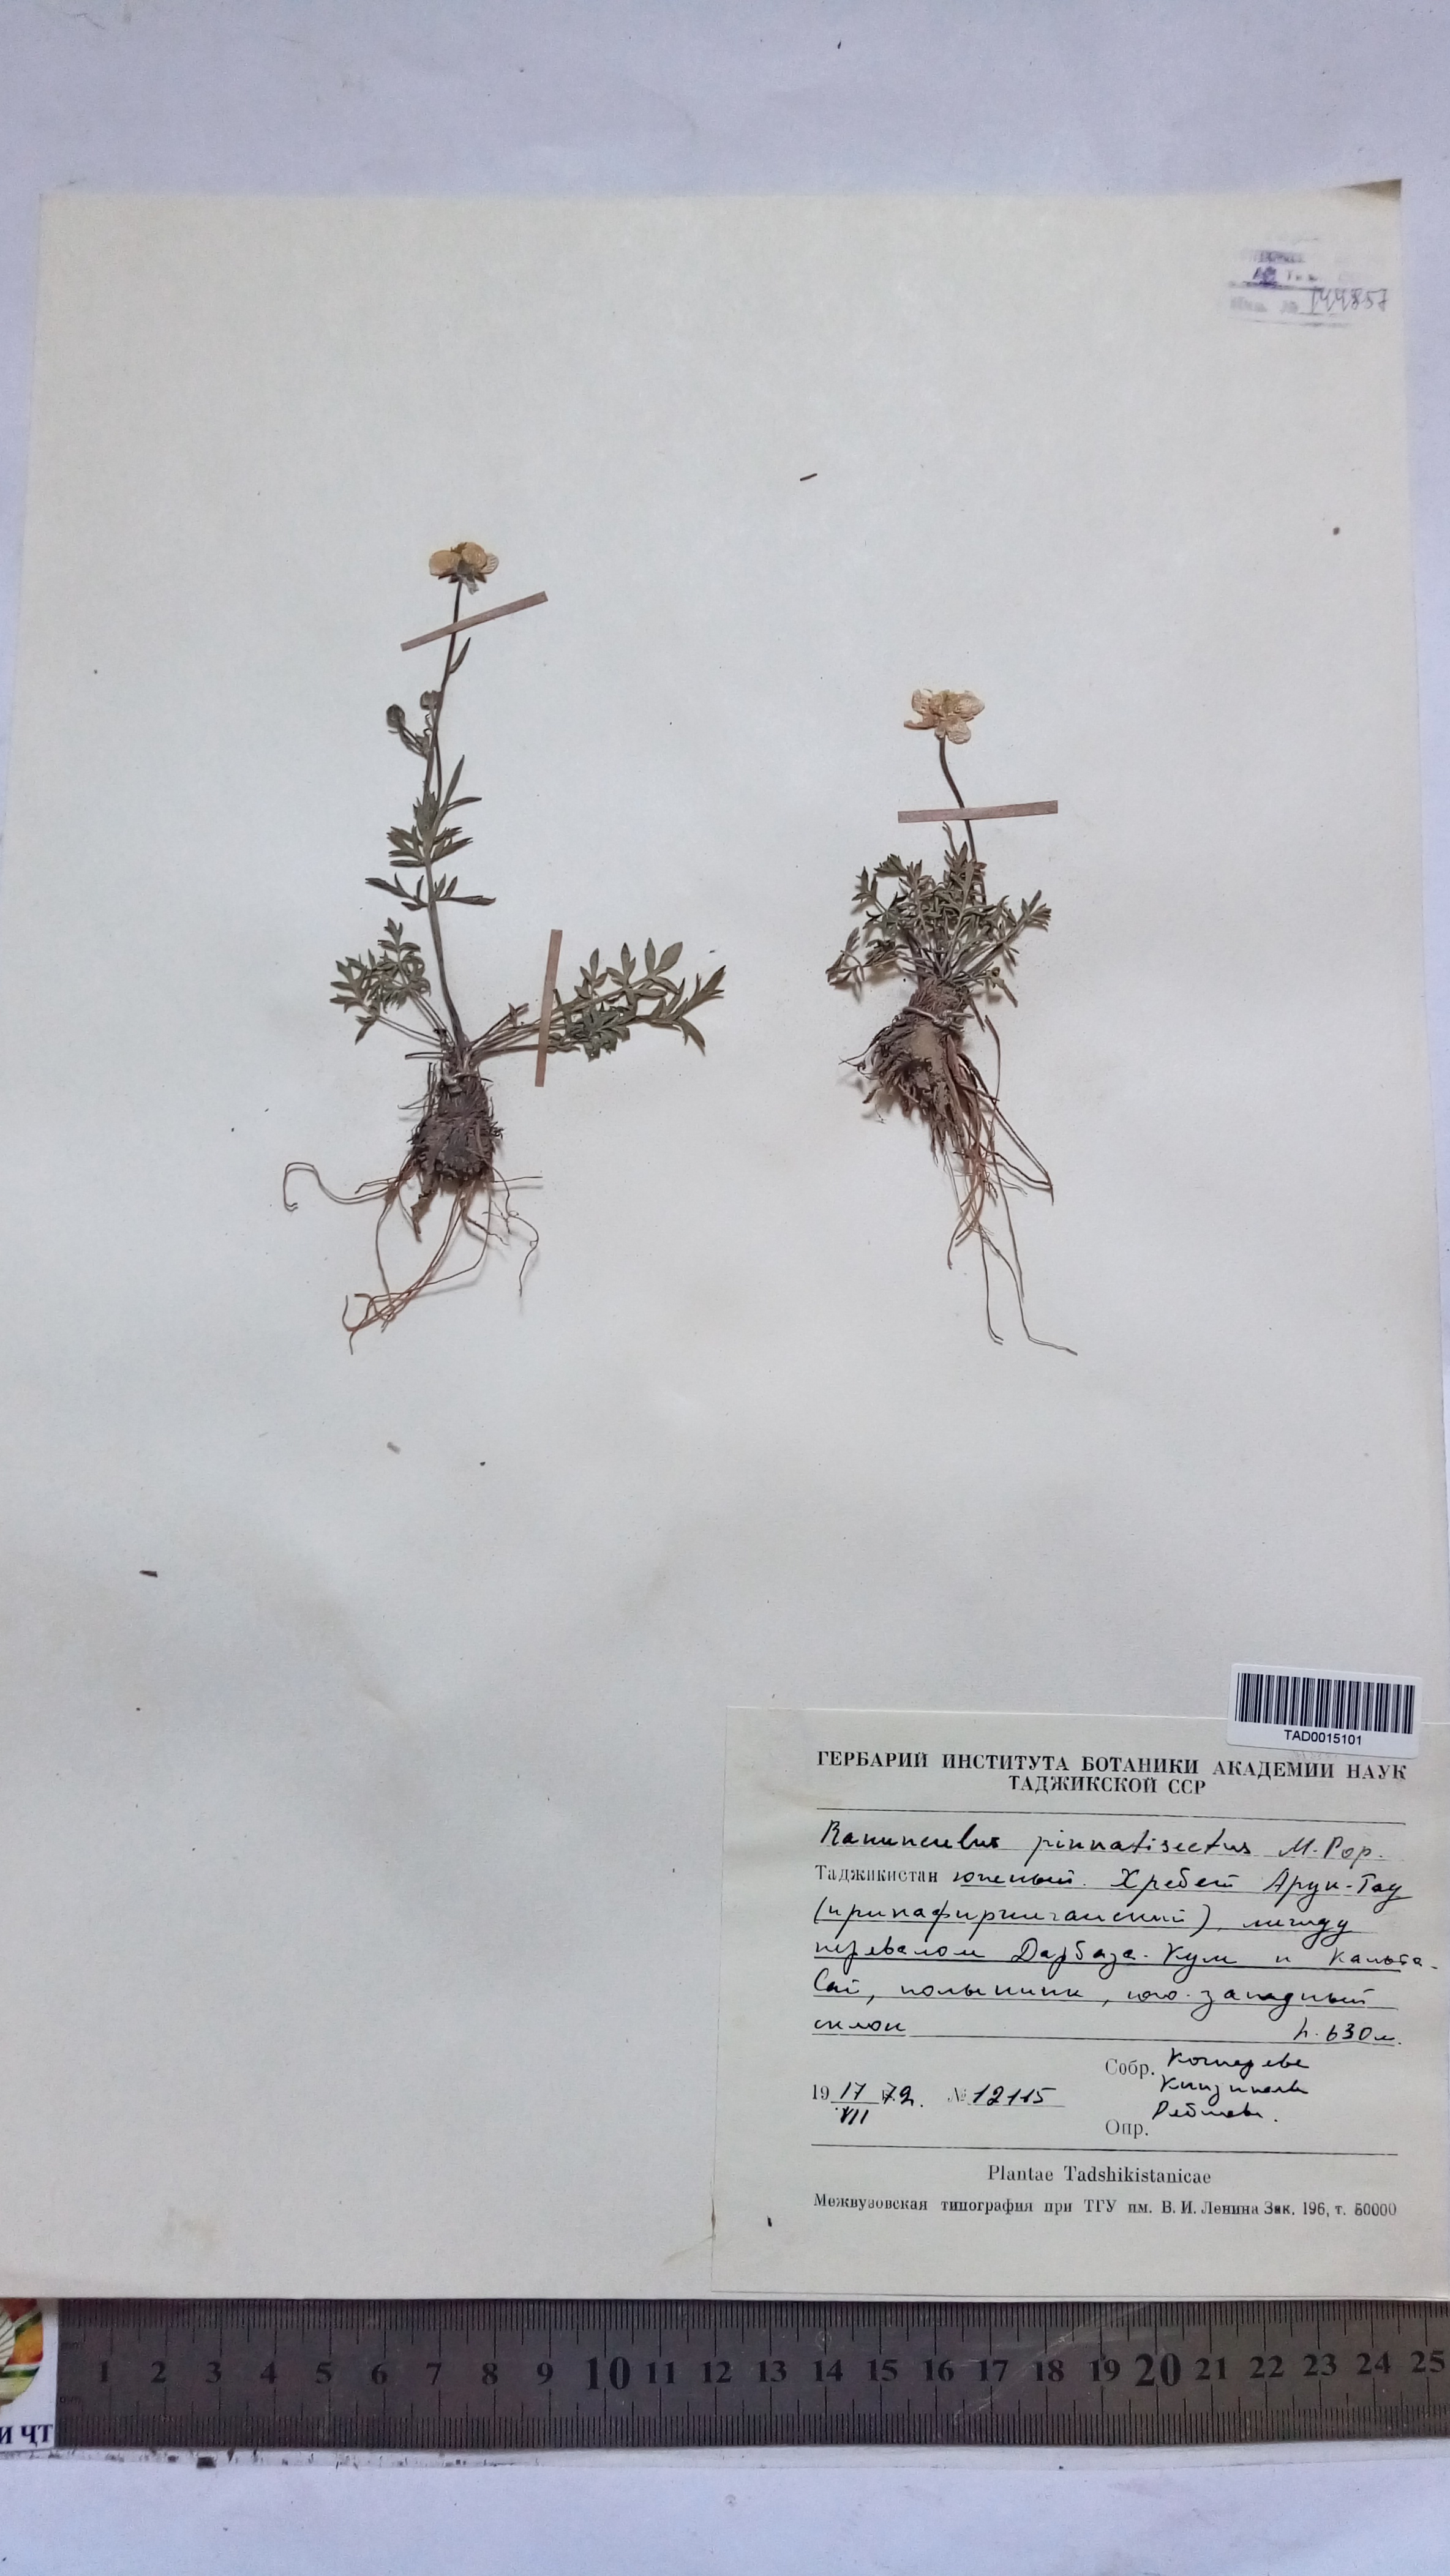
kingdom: Plantae
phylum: Tracheophyta
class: Magnoliopsida
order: Ranunculales
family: Ranunculaceae
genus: Ranunculus
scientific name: Ranunculus pinnatisectus
